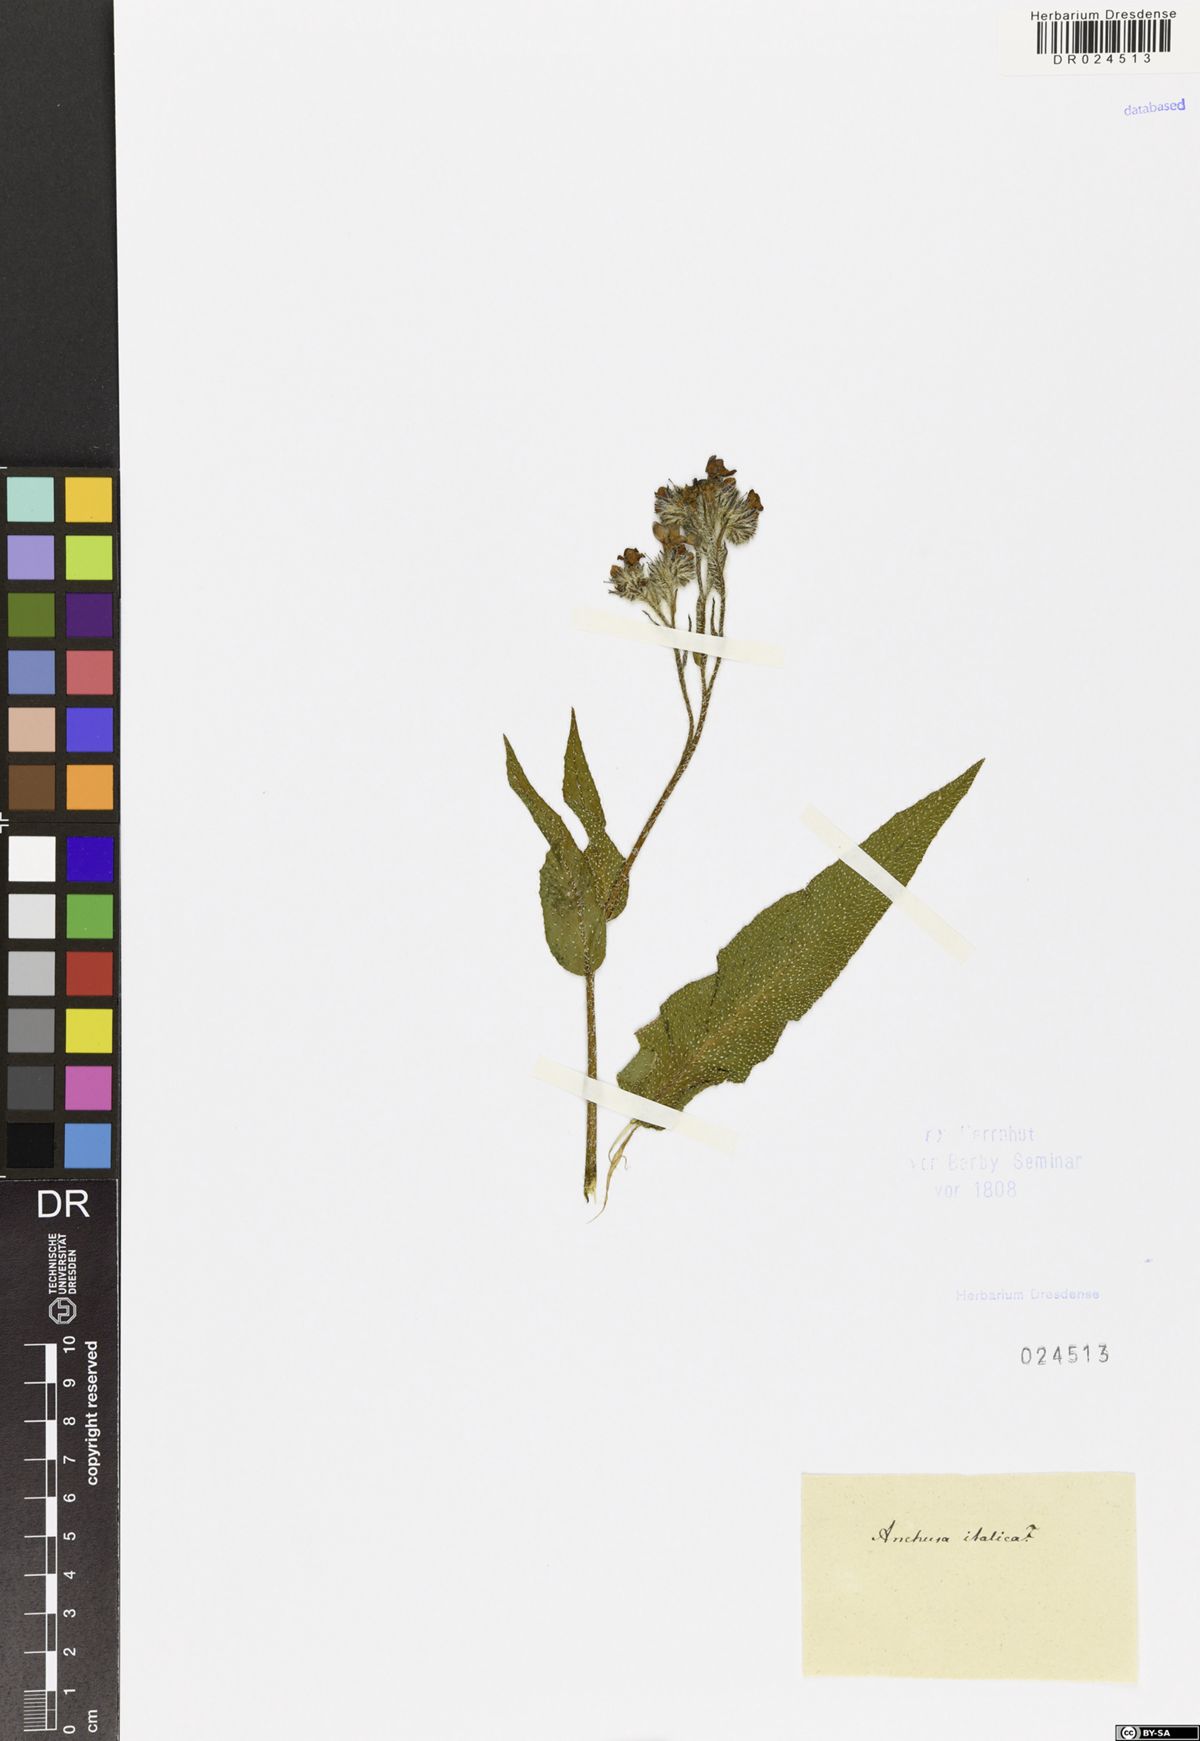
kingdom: Plantae
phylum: Tracheophyta
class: Magnoliopsida
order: Boraginales
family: Boraginaceae
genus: Anchusa
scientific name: Anchusa azurea
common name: Garden anchusa
